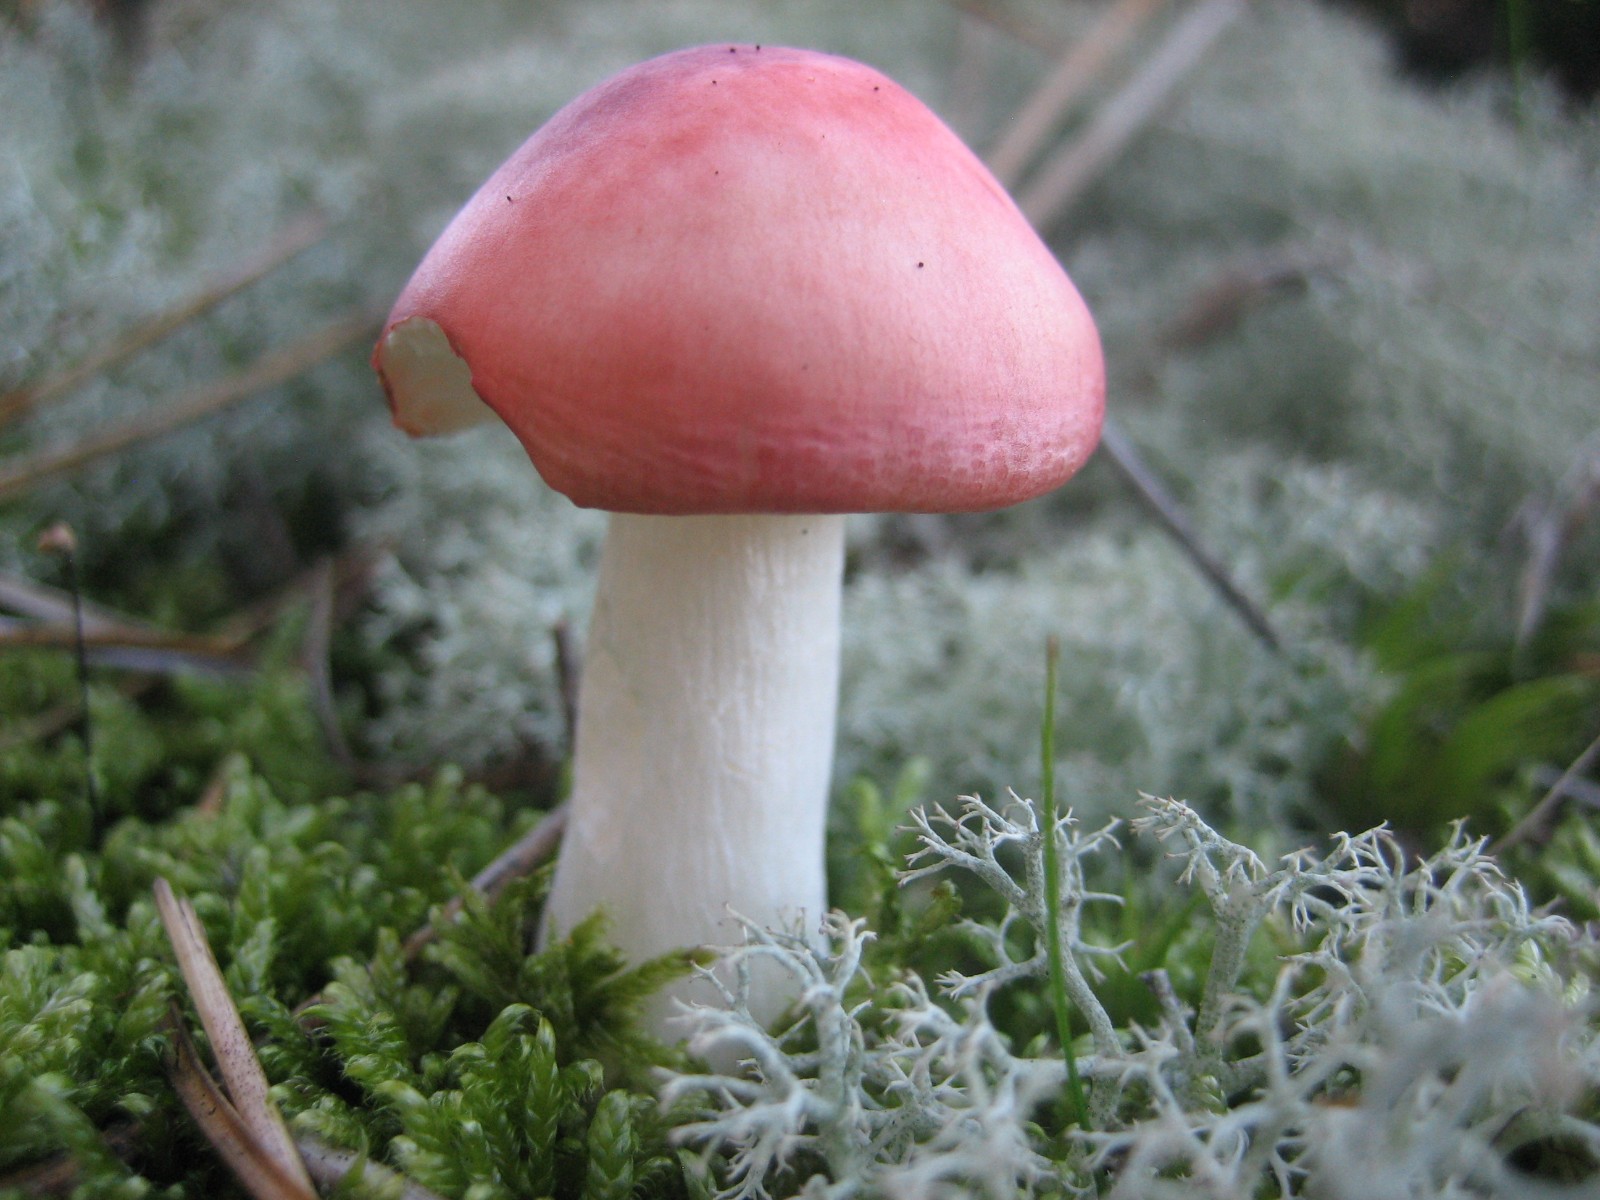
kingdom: Fungi
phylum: Basidiomycota
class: Agaricomycetes
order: Russulales
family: Russulaceae
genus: Russula
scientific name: Russula emetica
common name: stor gift-skørhat
